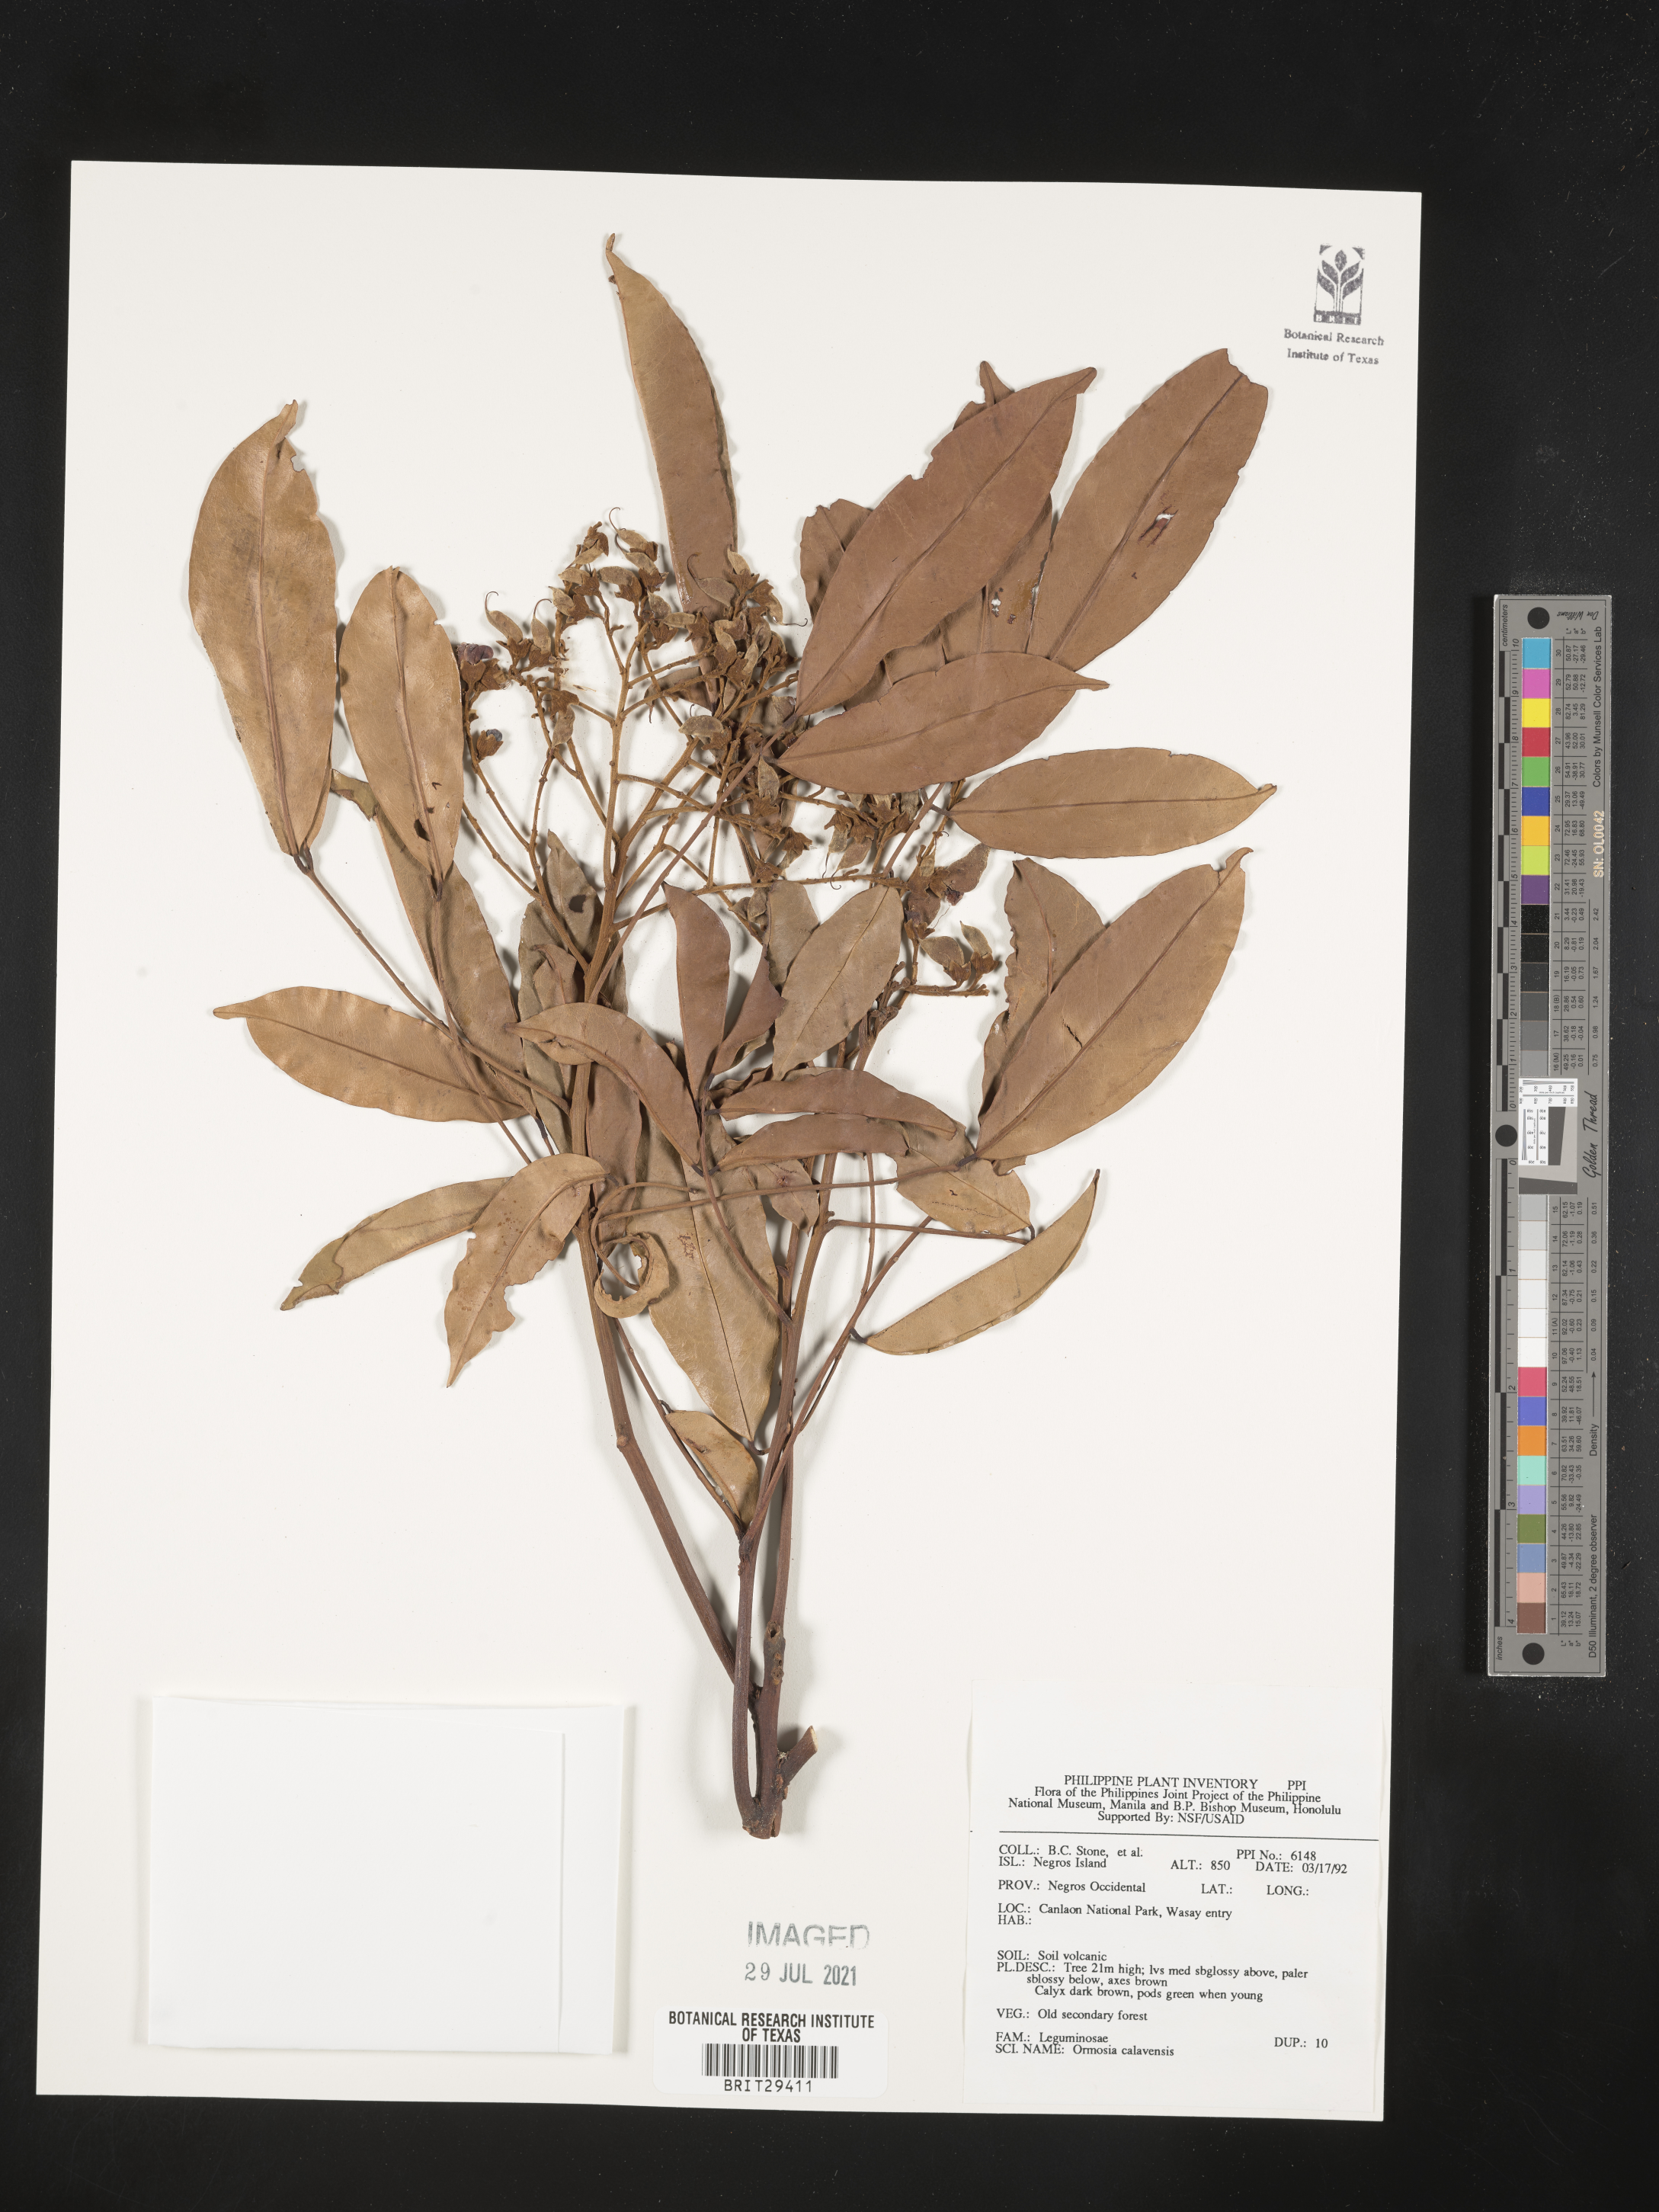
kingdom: Plantae
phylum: Tracheophyta
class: Magnoliopsida
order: Fabales
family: Fabaceae
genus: Ormosia
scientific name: Ormosia calavensis
